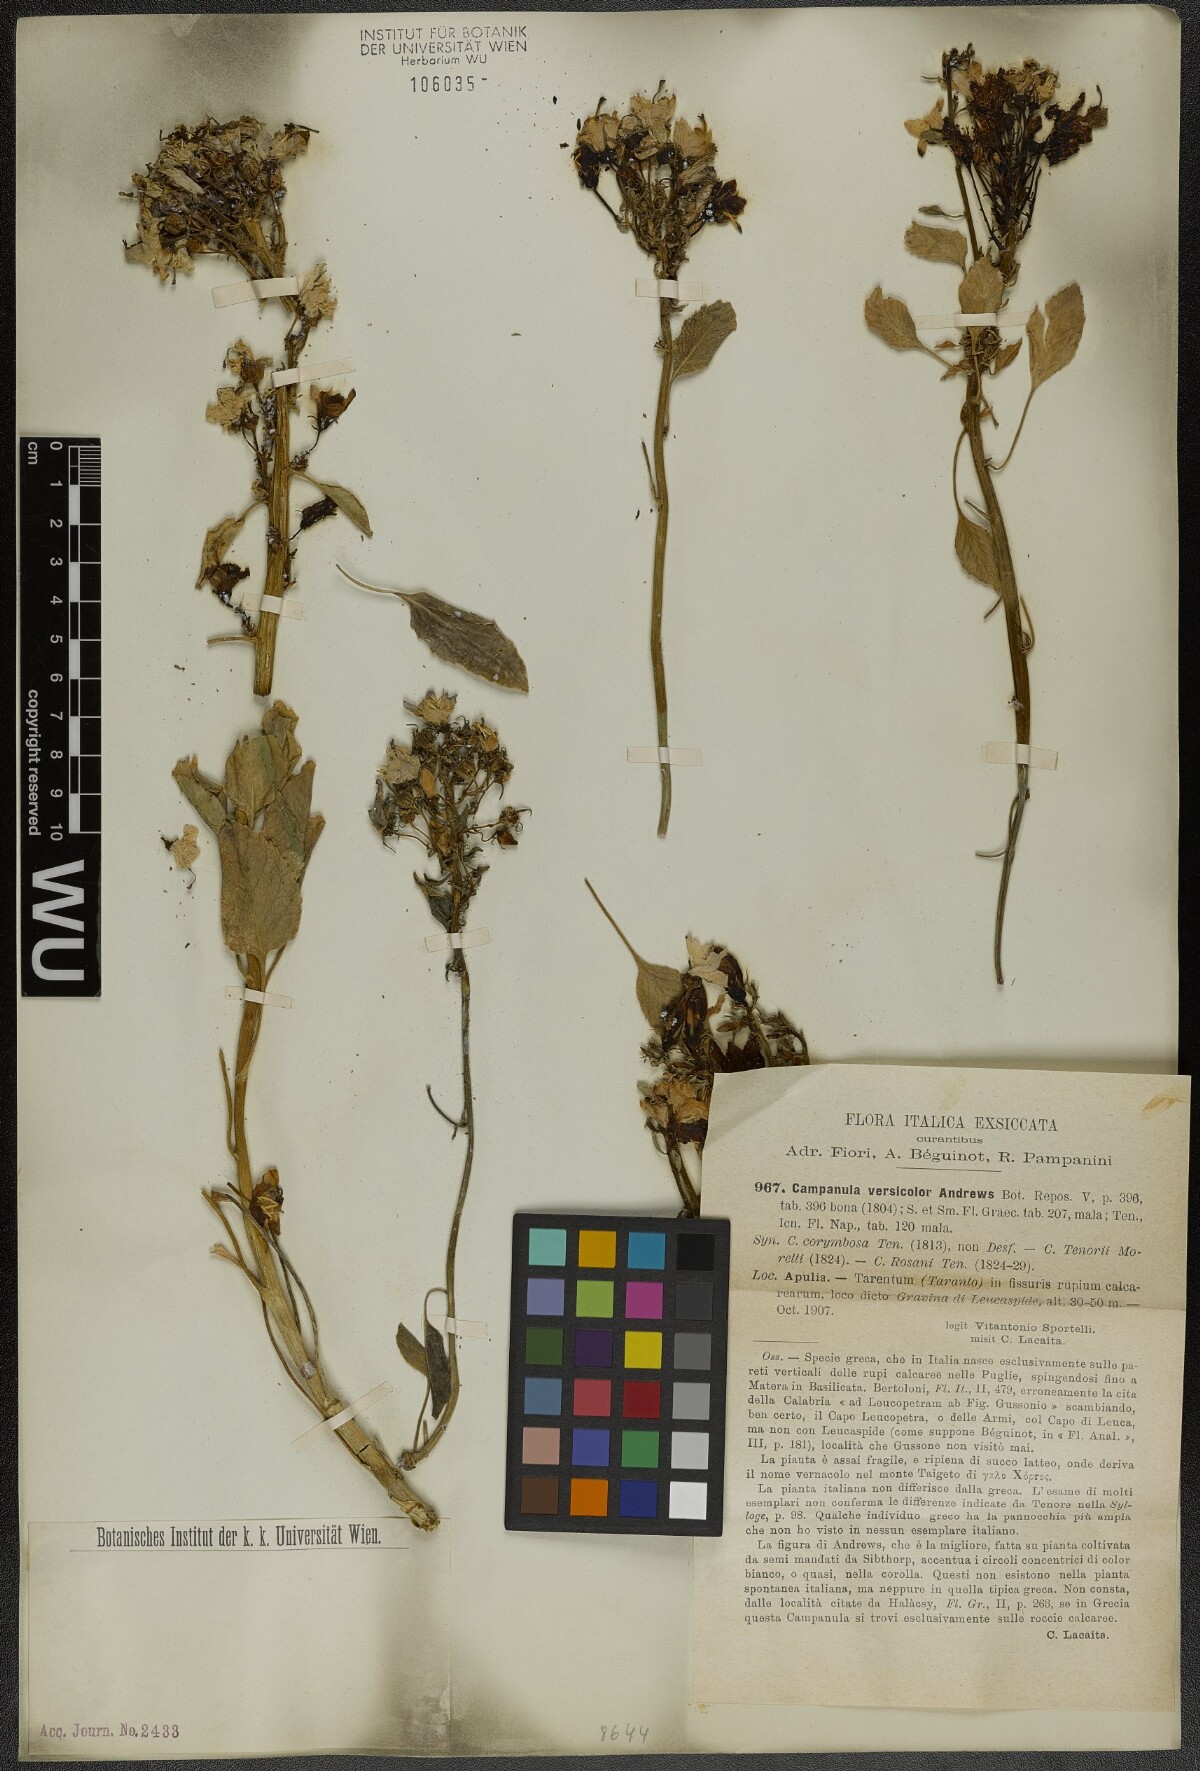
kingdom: Plantae
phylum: Tracheophyta
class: Magnoliopsida
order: Asterales
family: Campanulaceae
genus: Campanula
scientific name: Campanula versicolor
